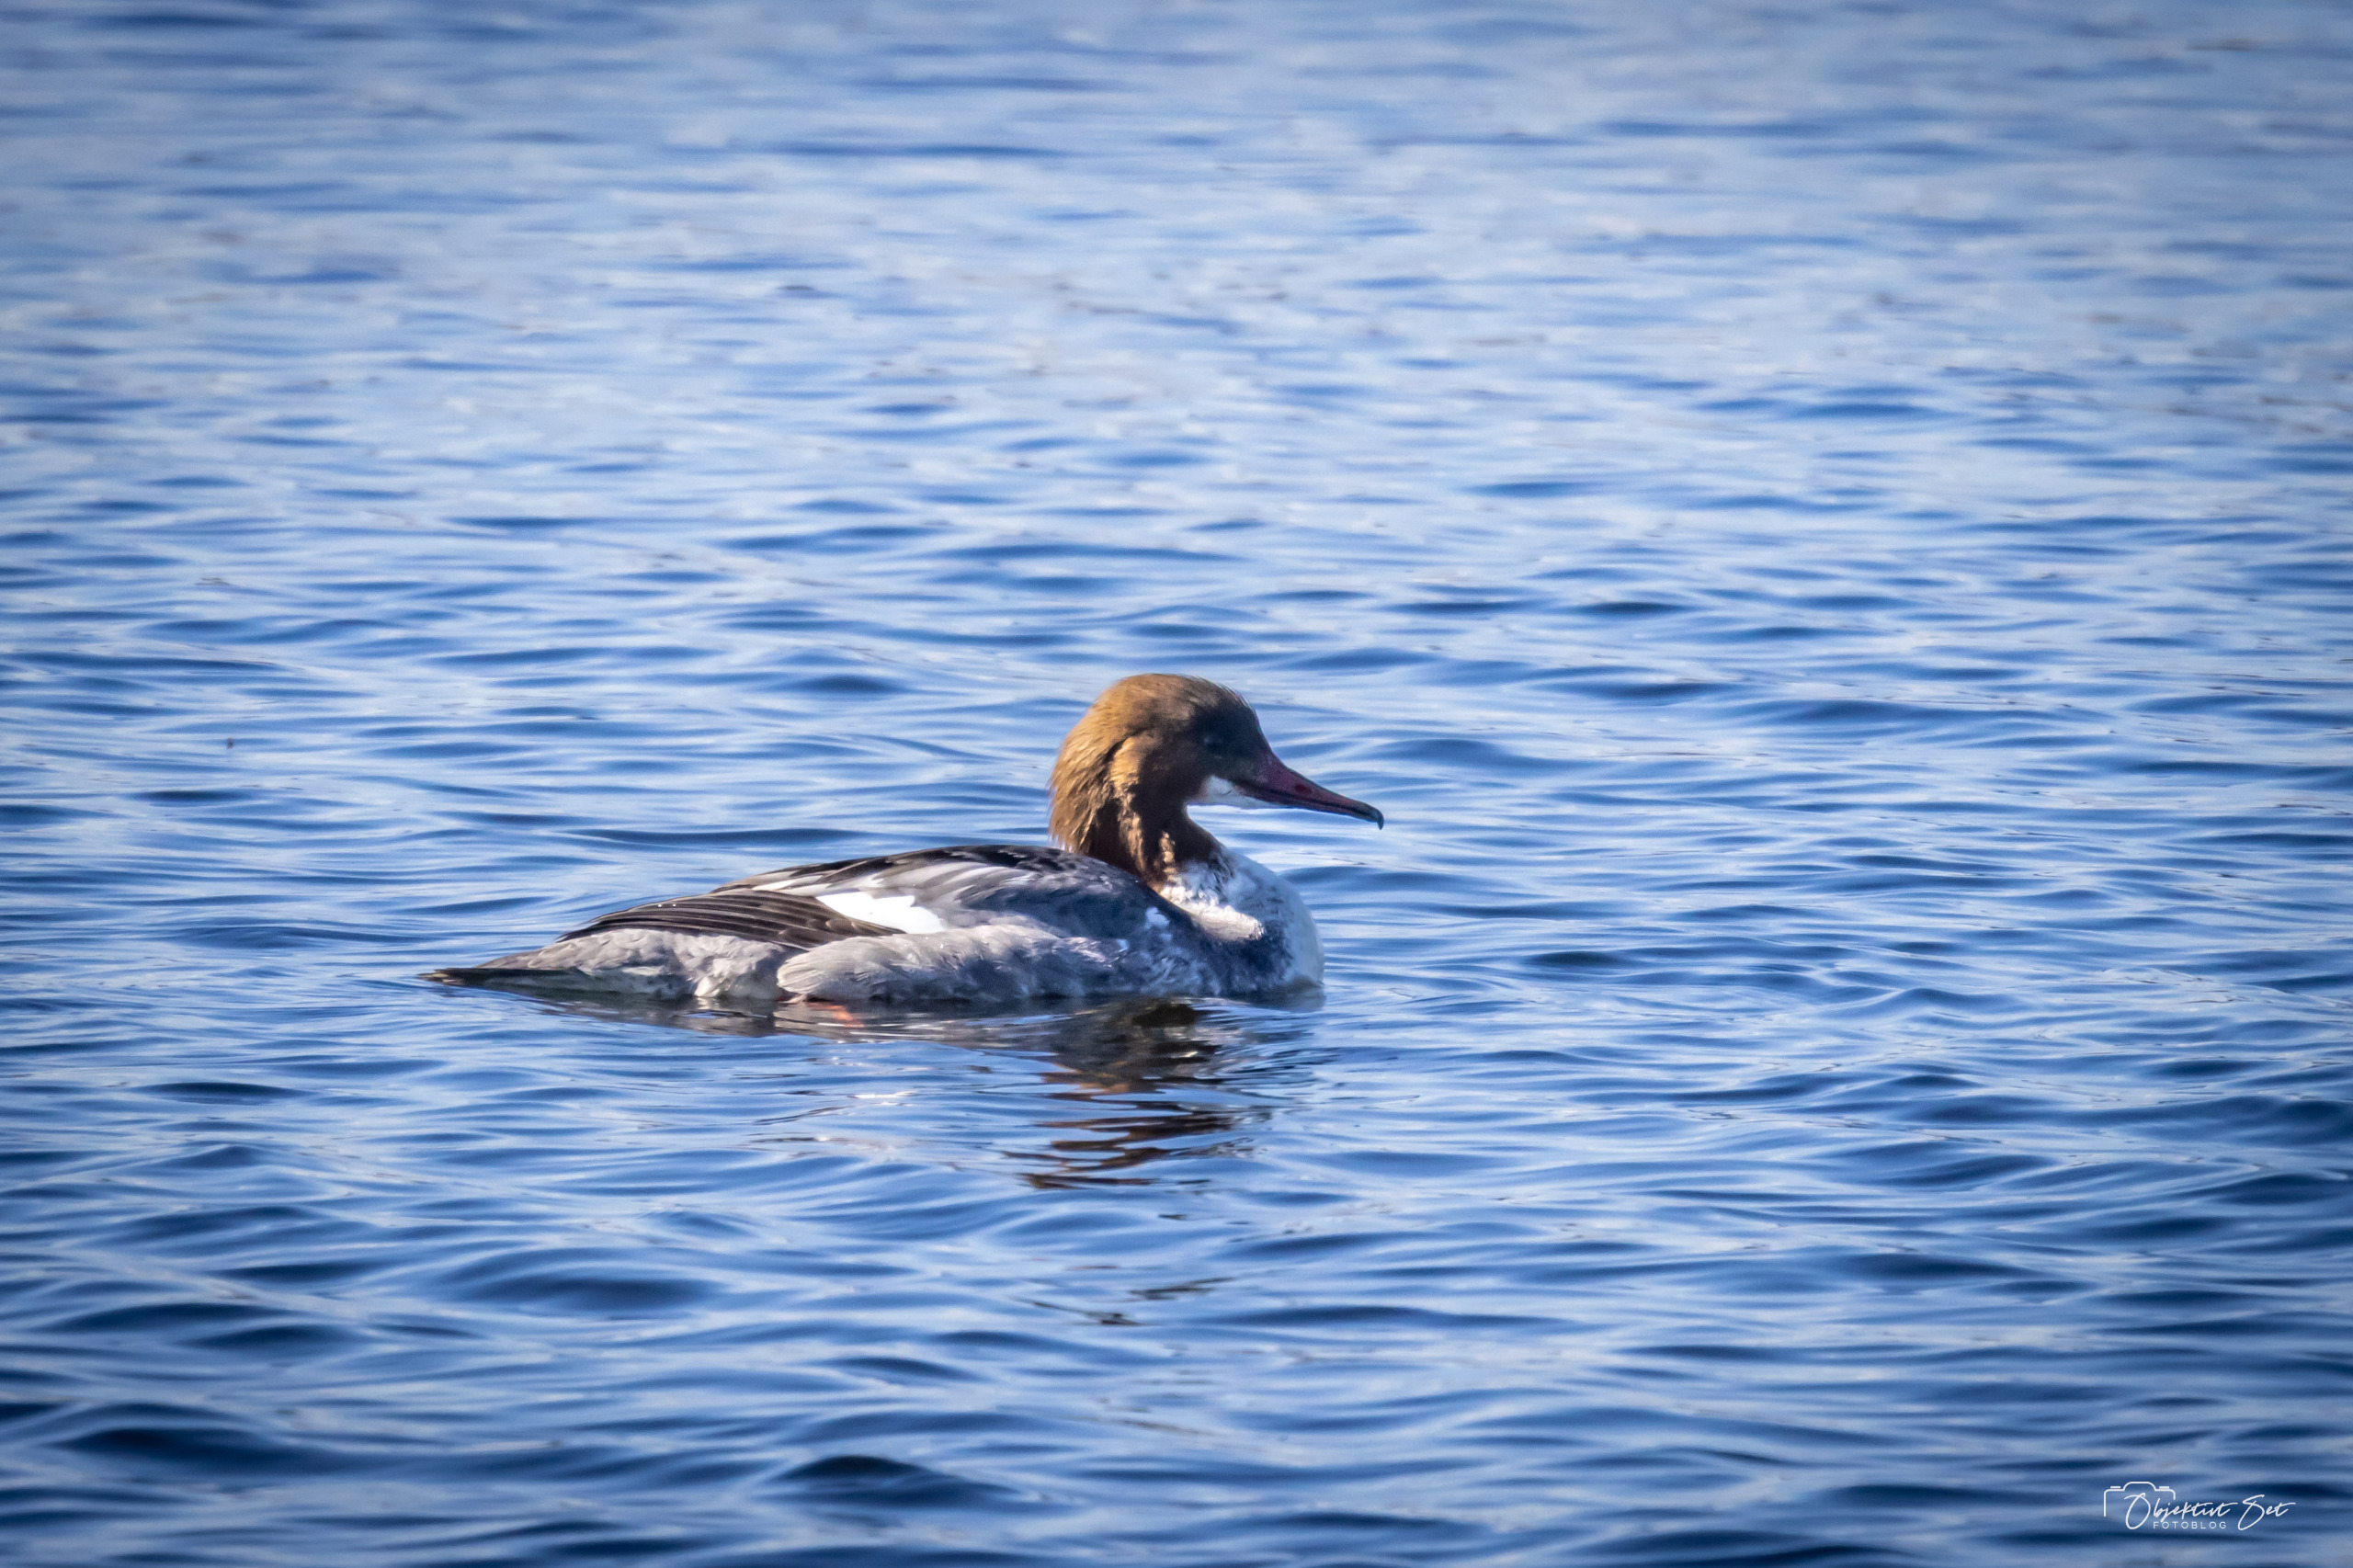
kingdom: Animalia
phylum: Chordata
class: Aves
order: Anseriformes
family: Anatidae
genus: Mergus
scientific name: Mergus merganser
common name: Stor skallesluger
